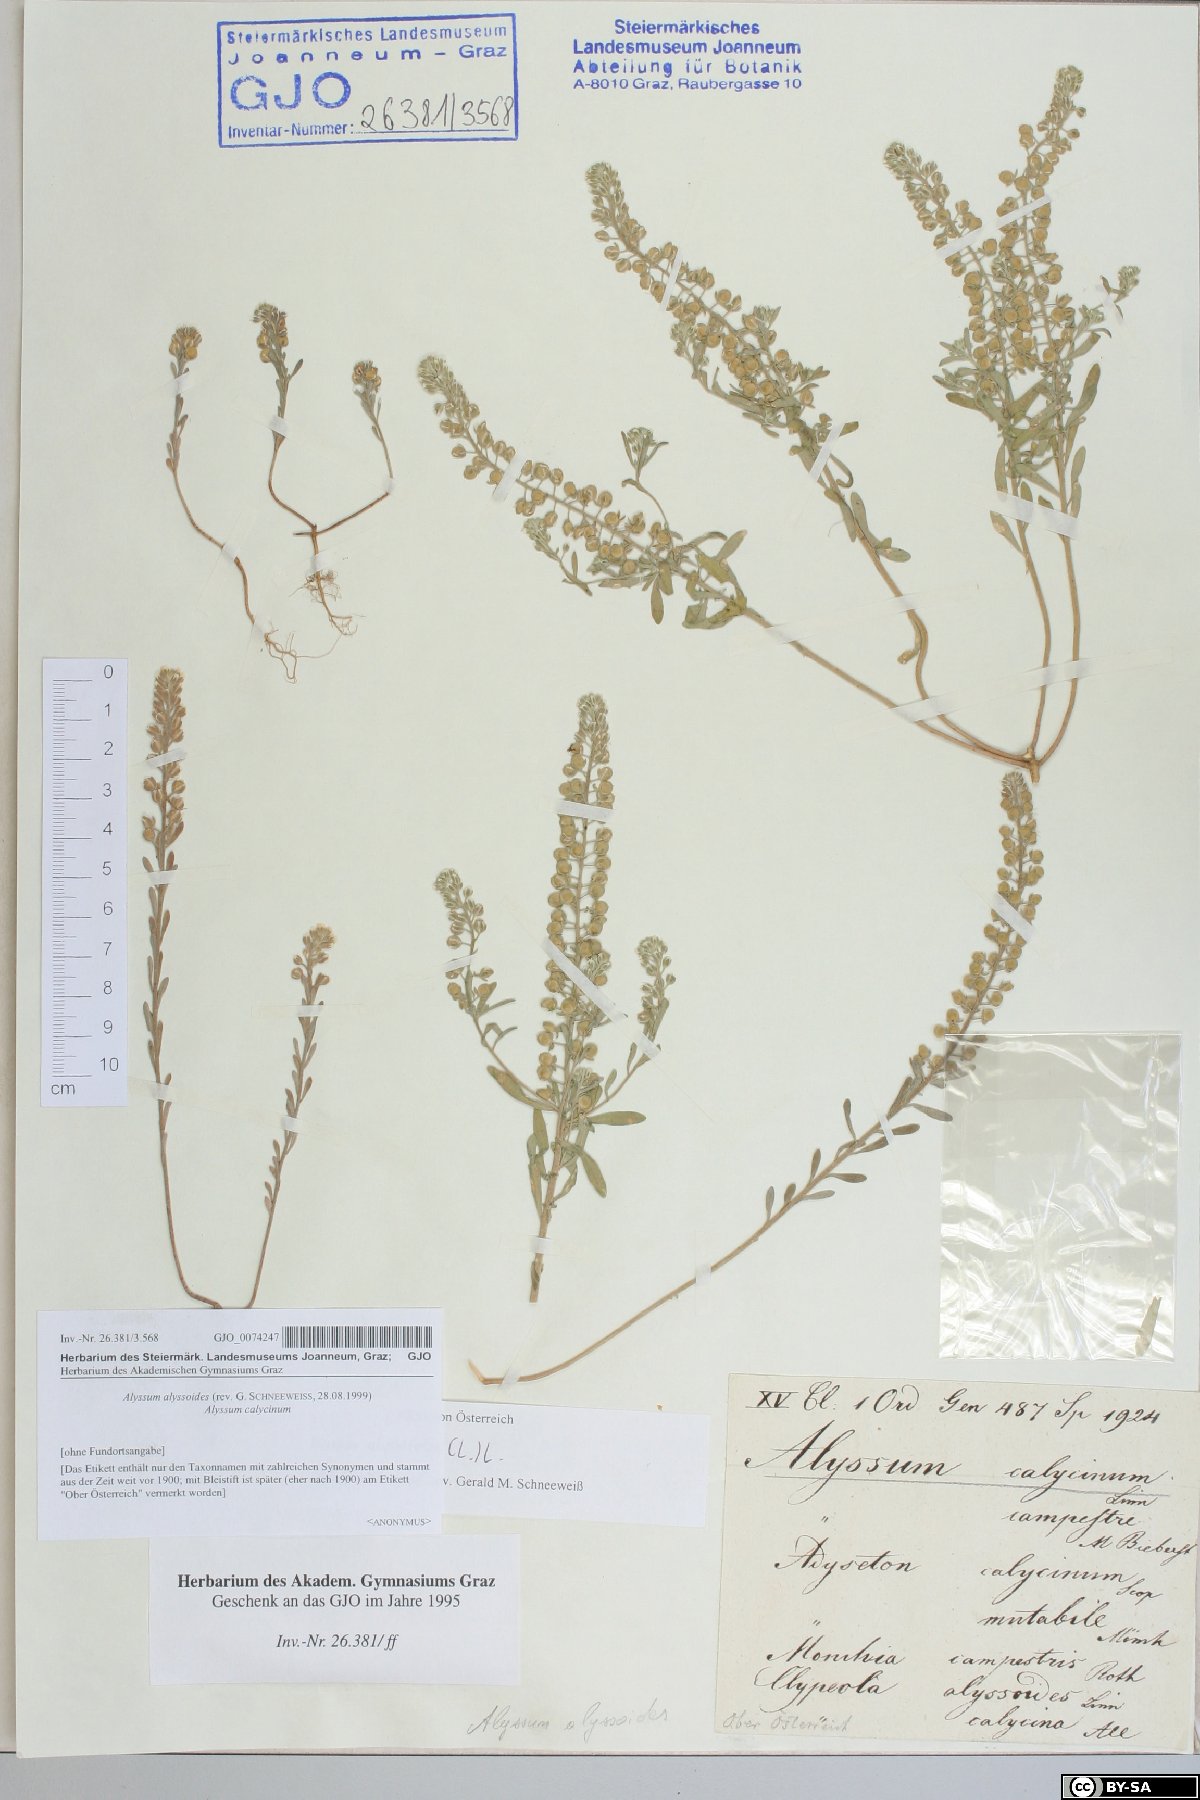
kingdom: Plantae
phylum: Tracheophyta
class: Magnoliopsida
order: Brassicales
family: Brassicaceae
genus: Alyssum
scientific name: Alyssum alyssoides
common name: Small alison
